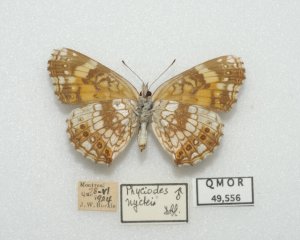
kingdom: Animalia
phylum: Arthropoda
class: Insecta
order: Lepidoptera
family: Nymphalidae
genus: Chlosyne
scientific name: Chlosyne nycteis
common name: Silvery Checkerspot
